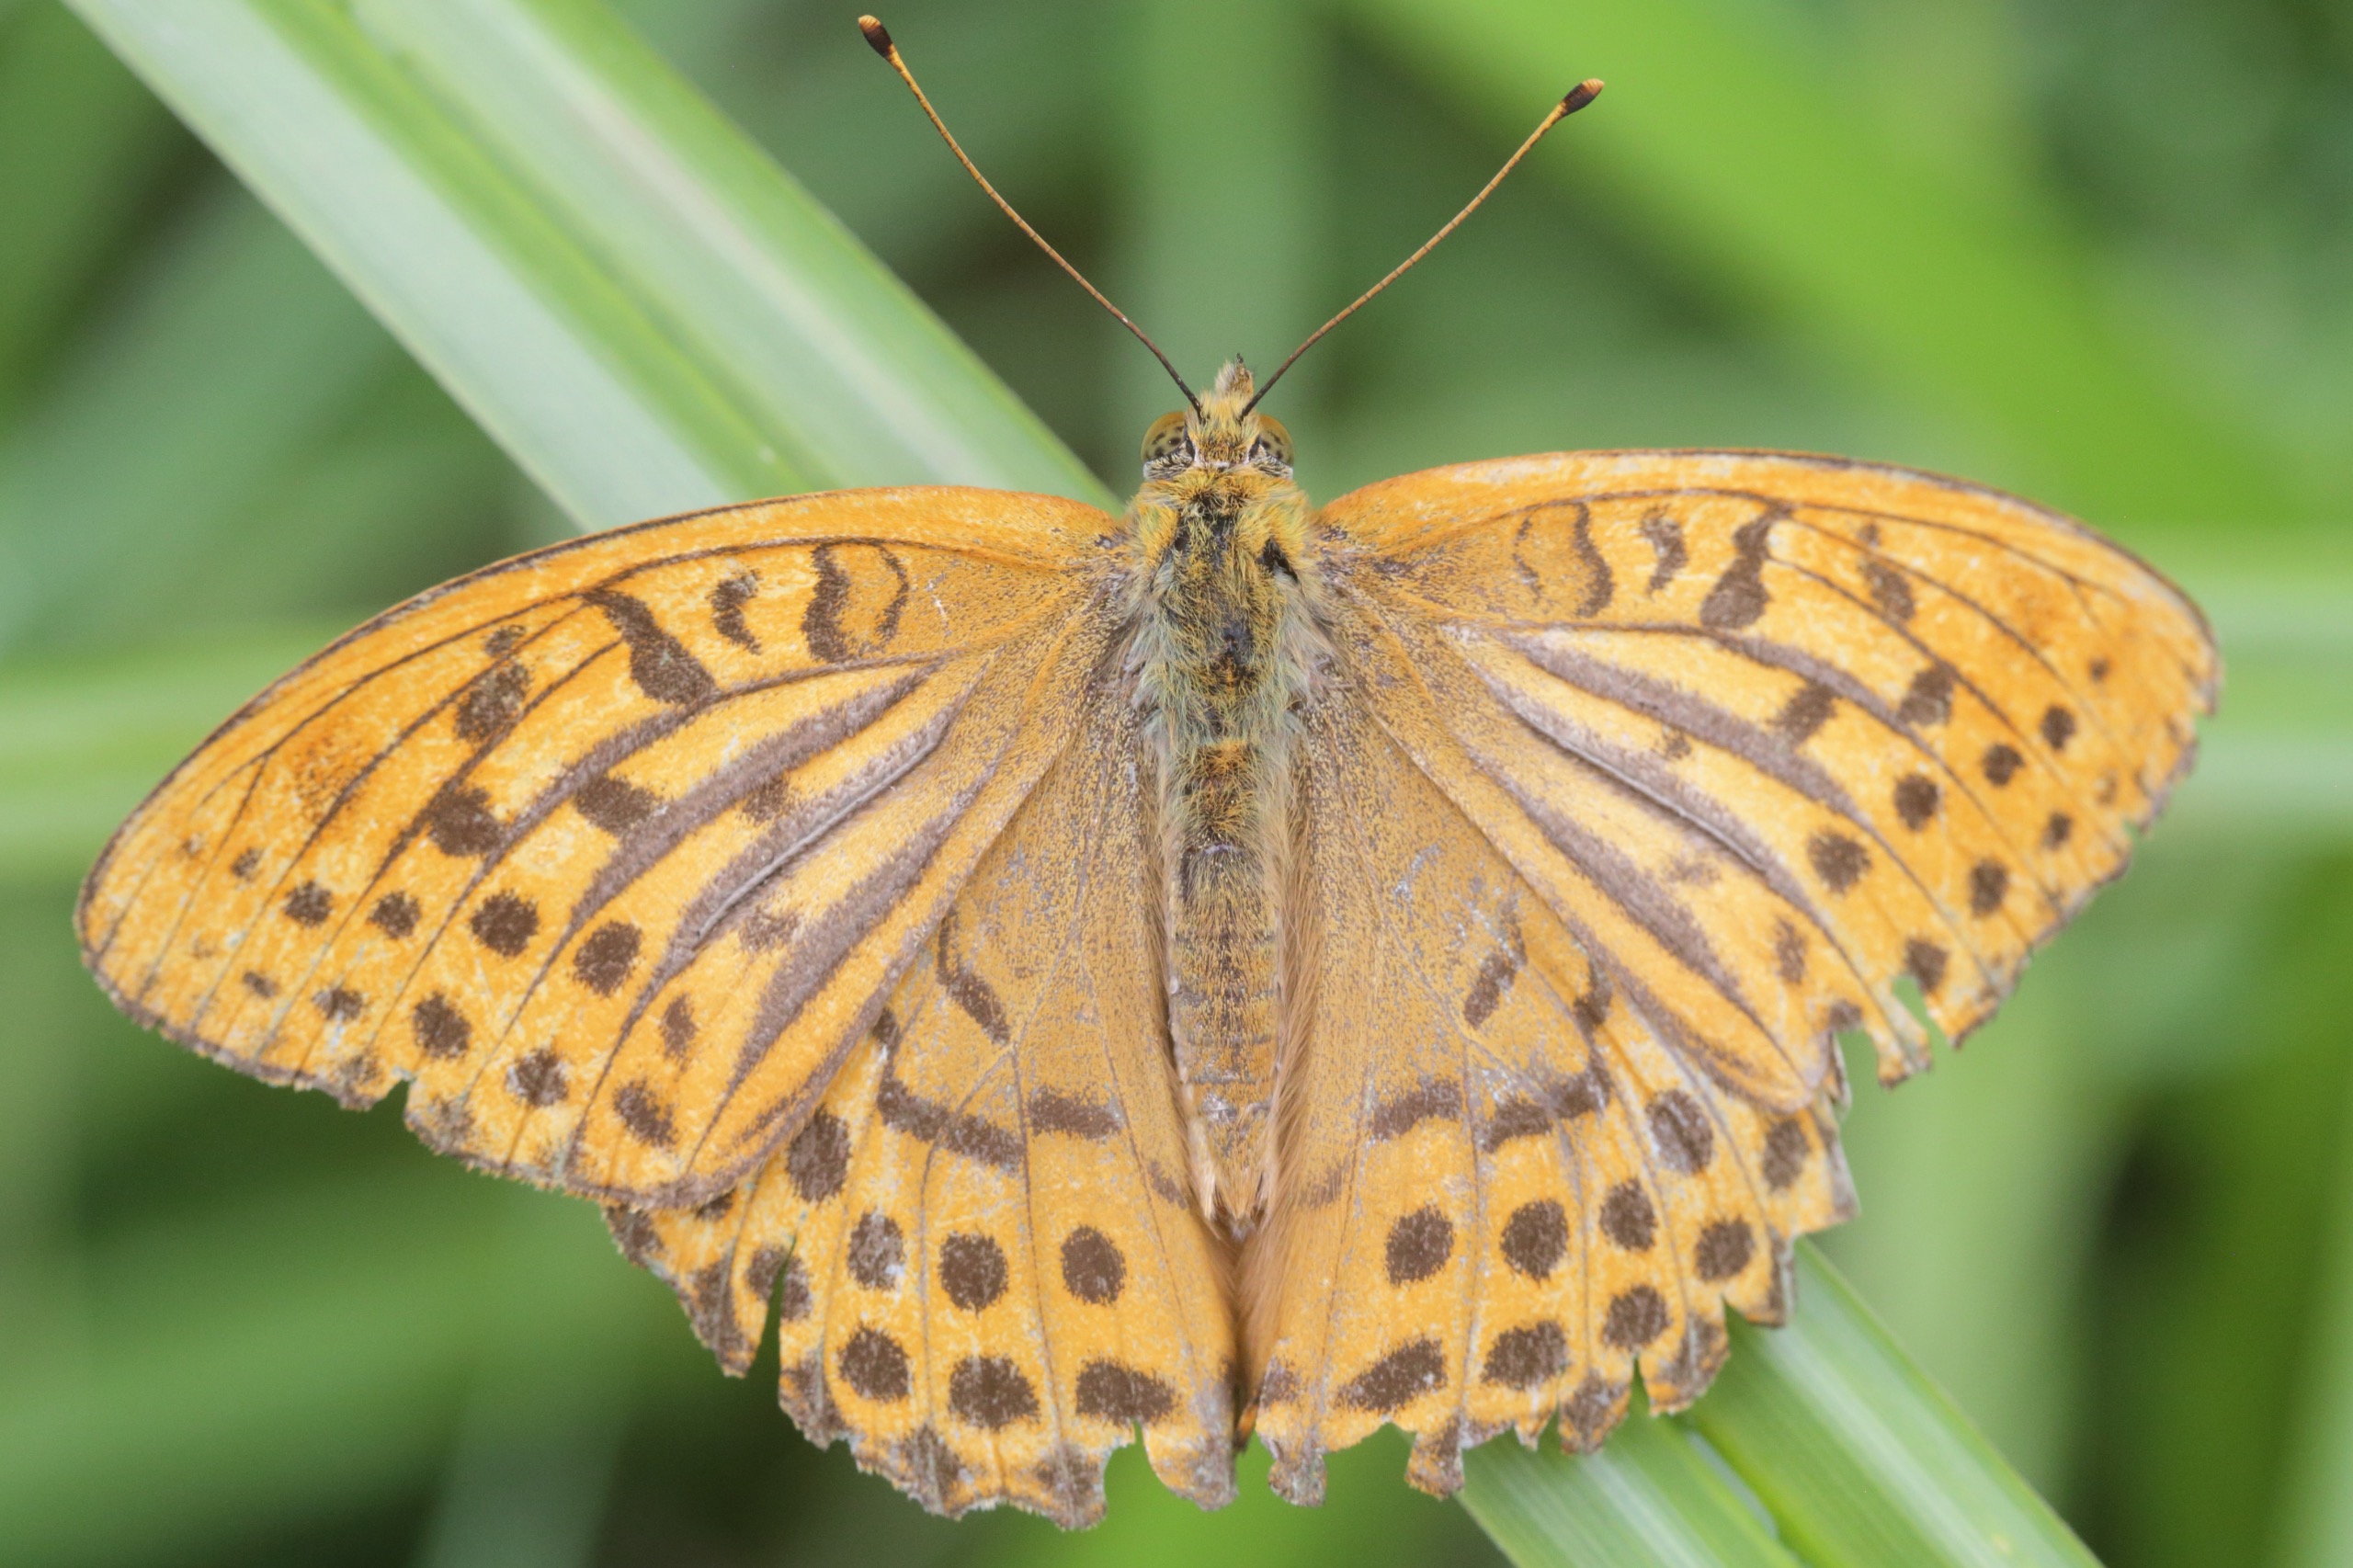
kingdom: Animalia
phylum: Arthropoda
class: Insecta
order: Lepidoptera
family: Nymphalidae
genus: Argynnis
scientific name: Argynnis paphia
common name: Kejserkåbe
